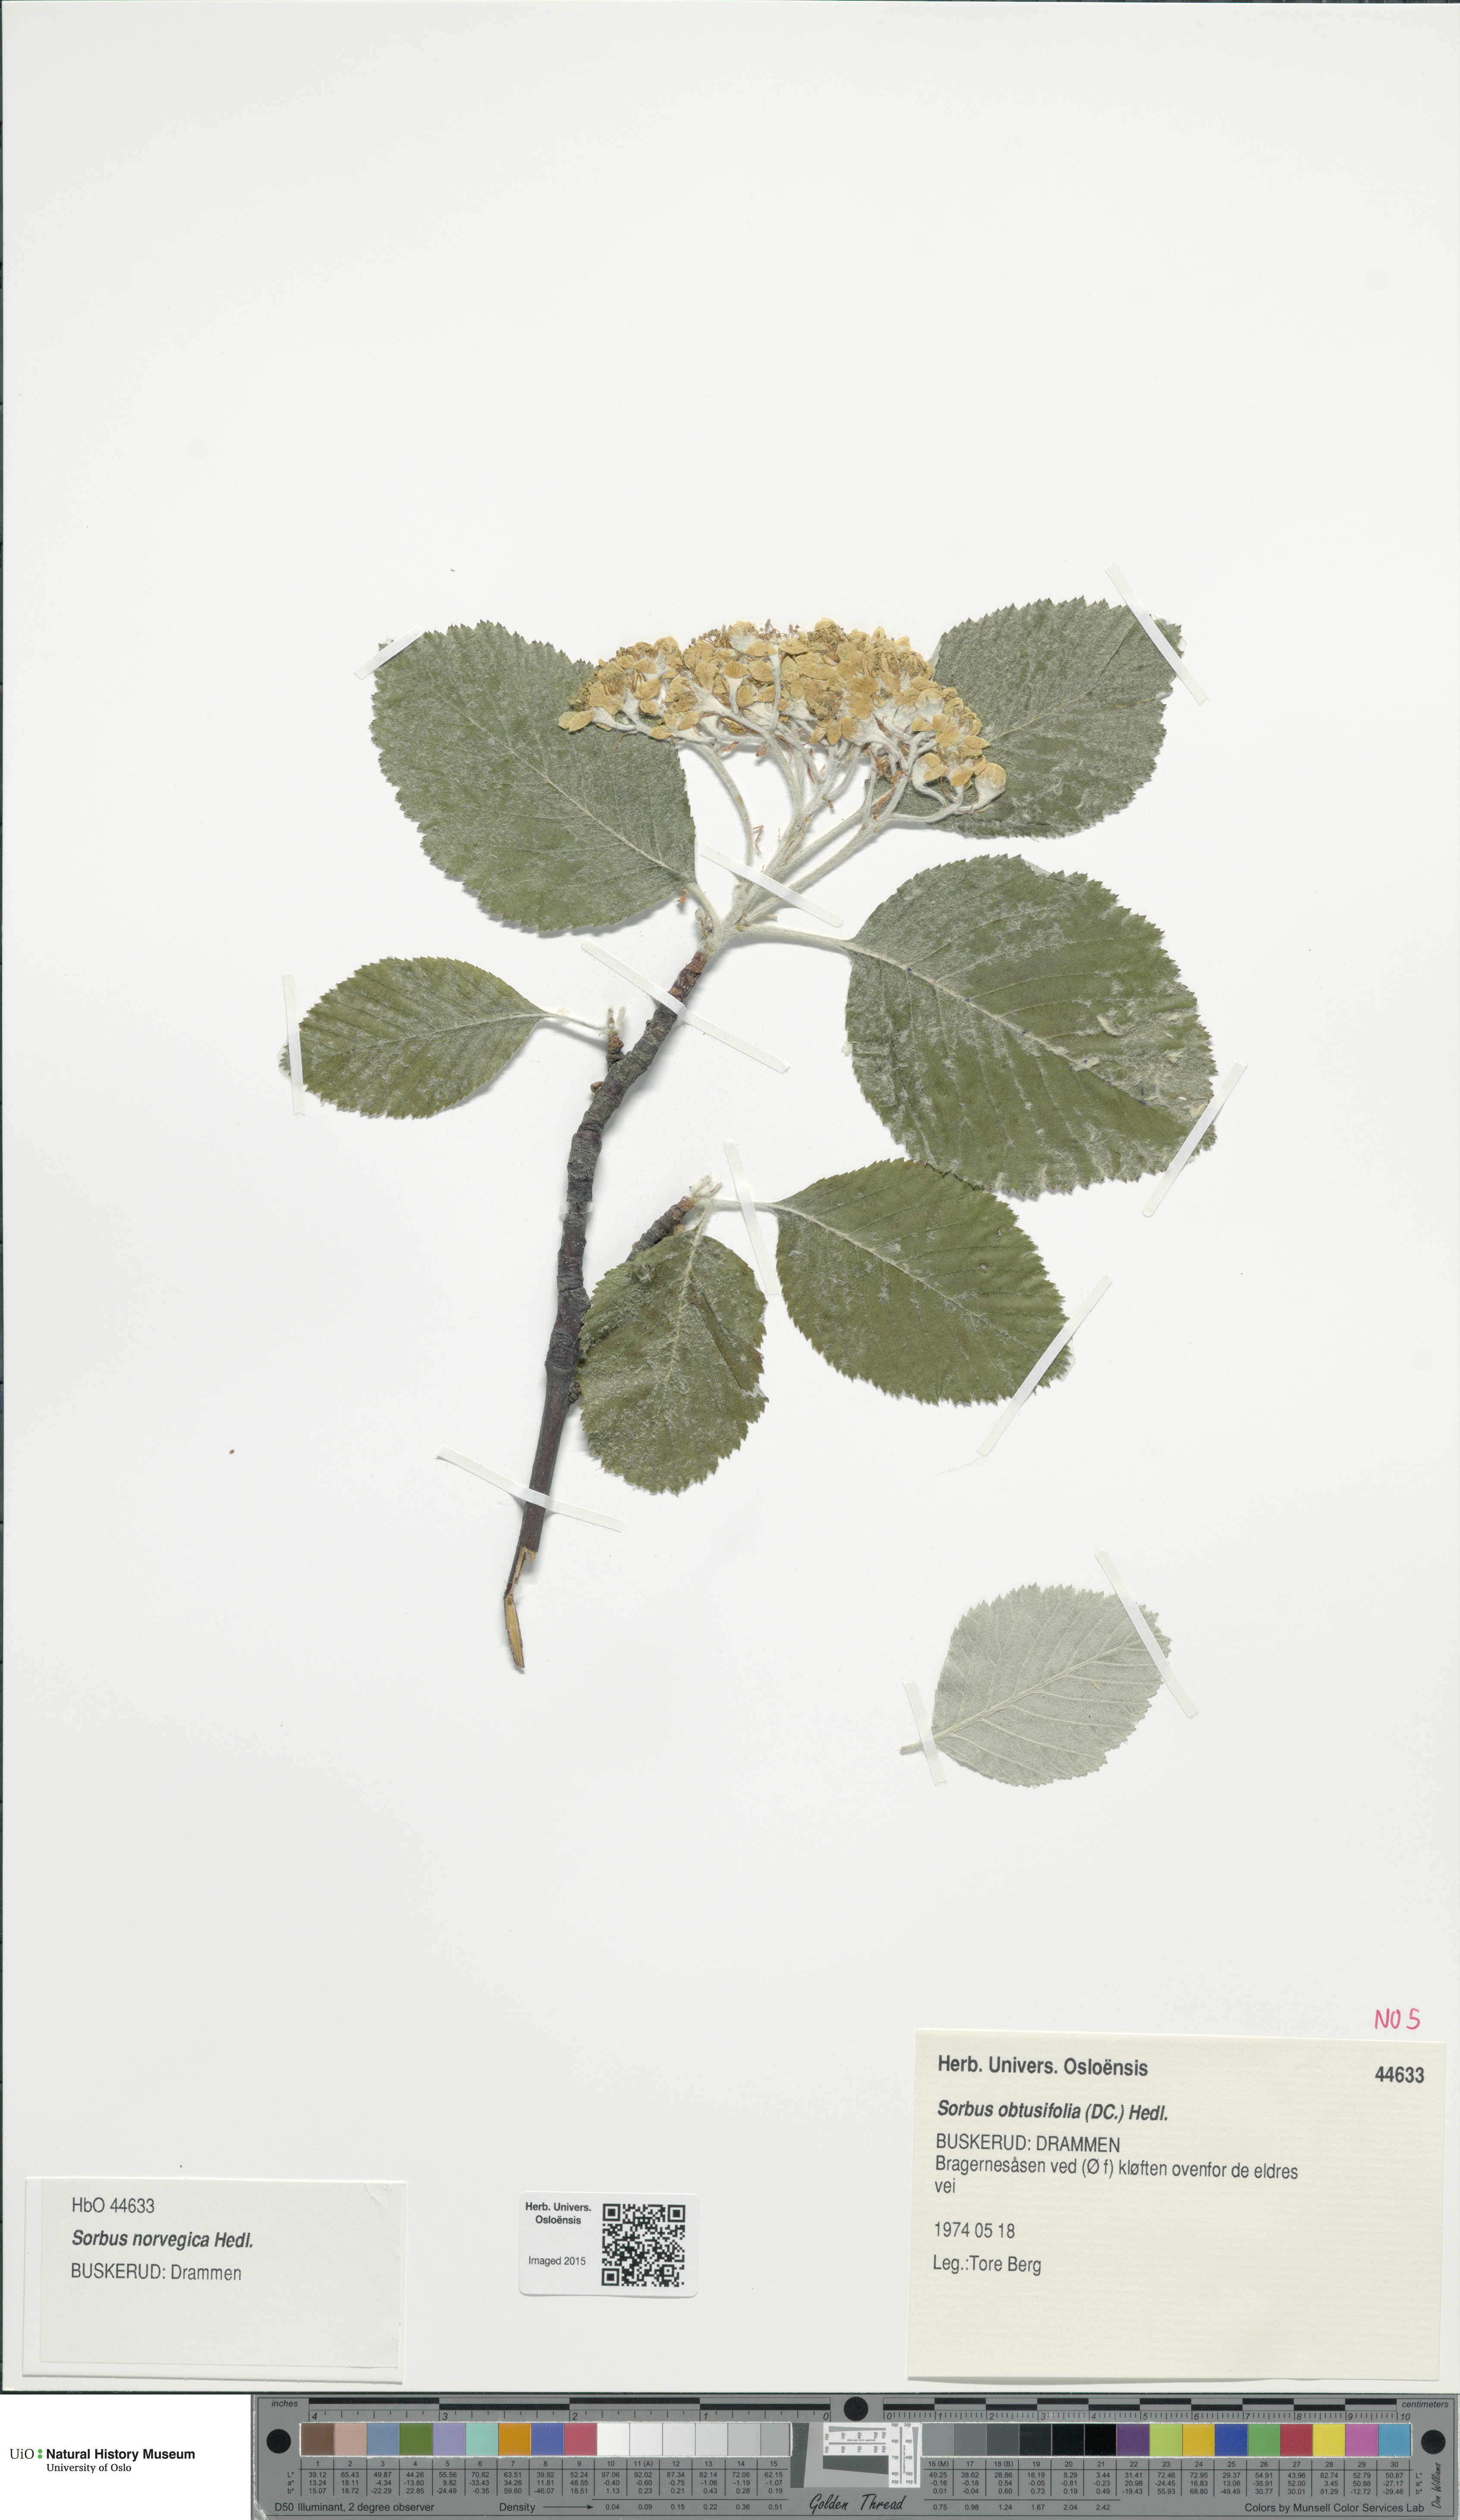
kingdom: Plantae
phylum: Tracheophyta
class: Magnoliopsida
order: Rosales
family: Rosaceae
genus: Aria
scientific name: Aria obtusifolia
